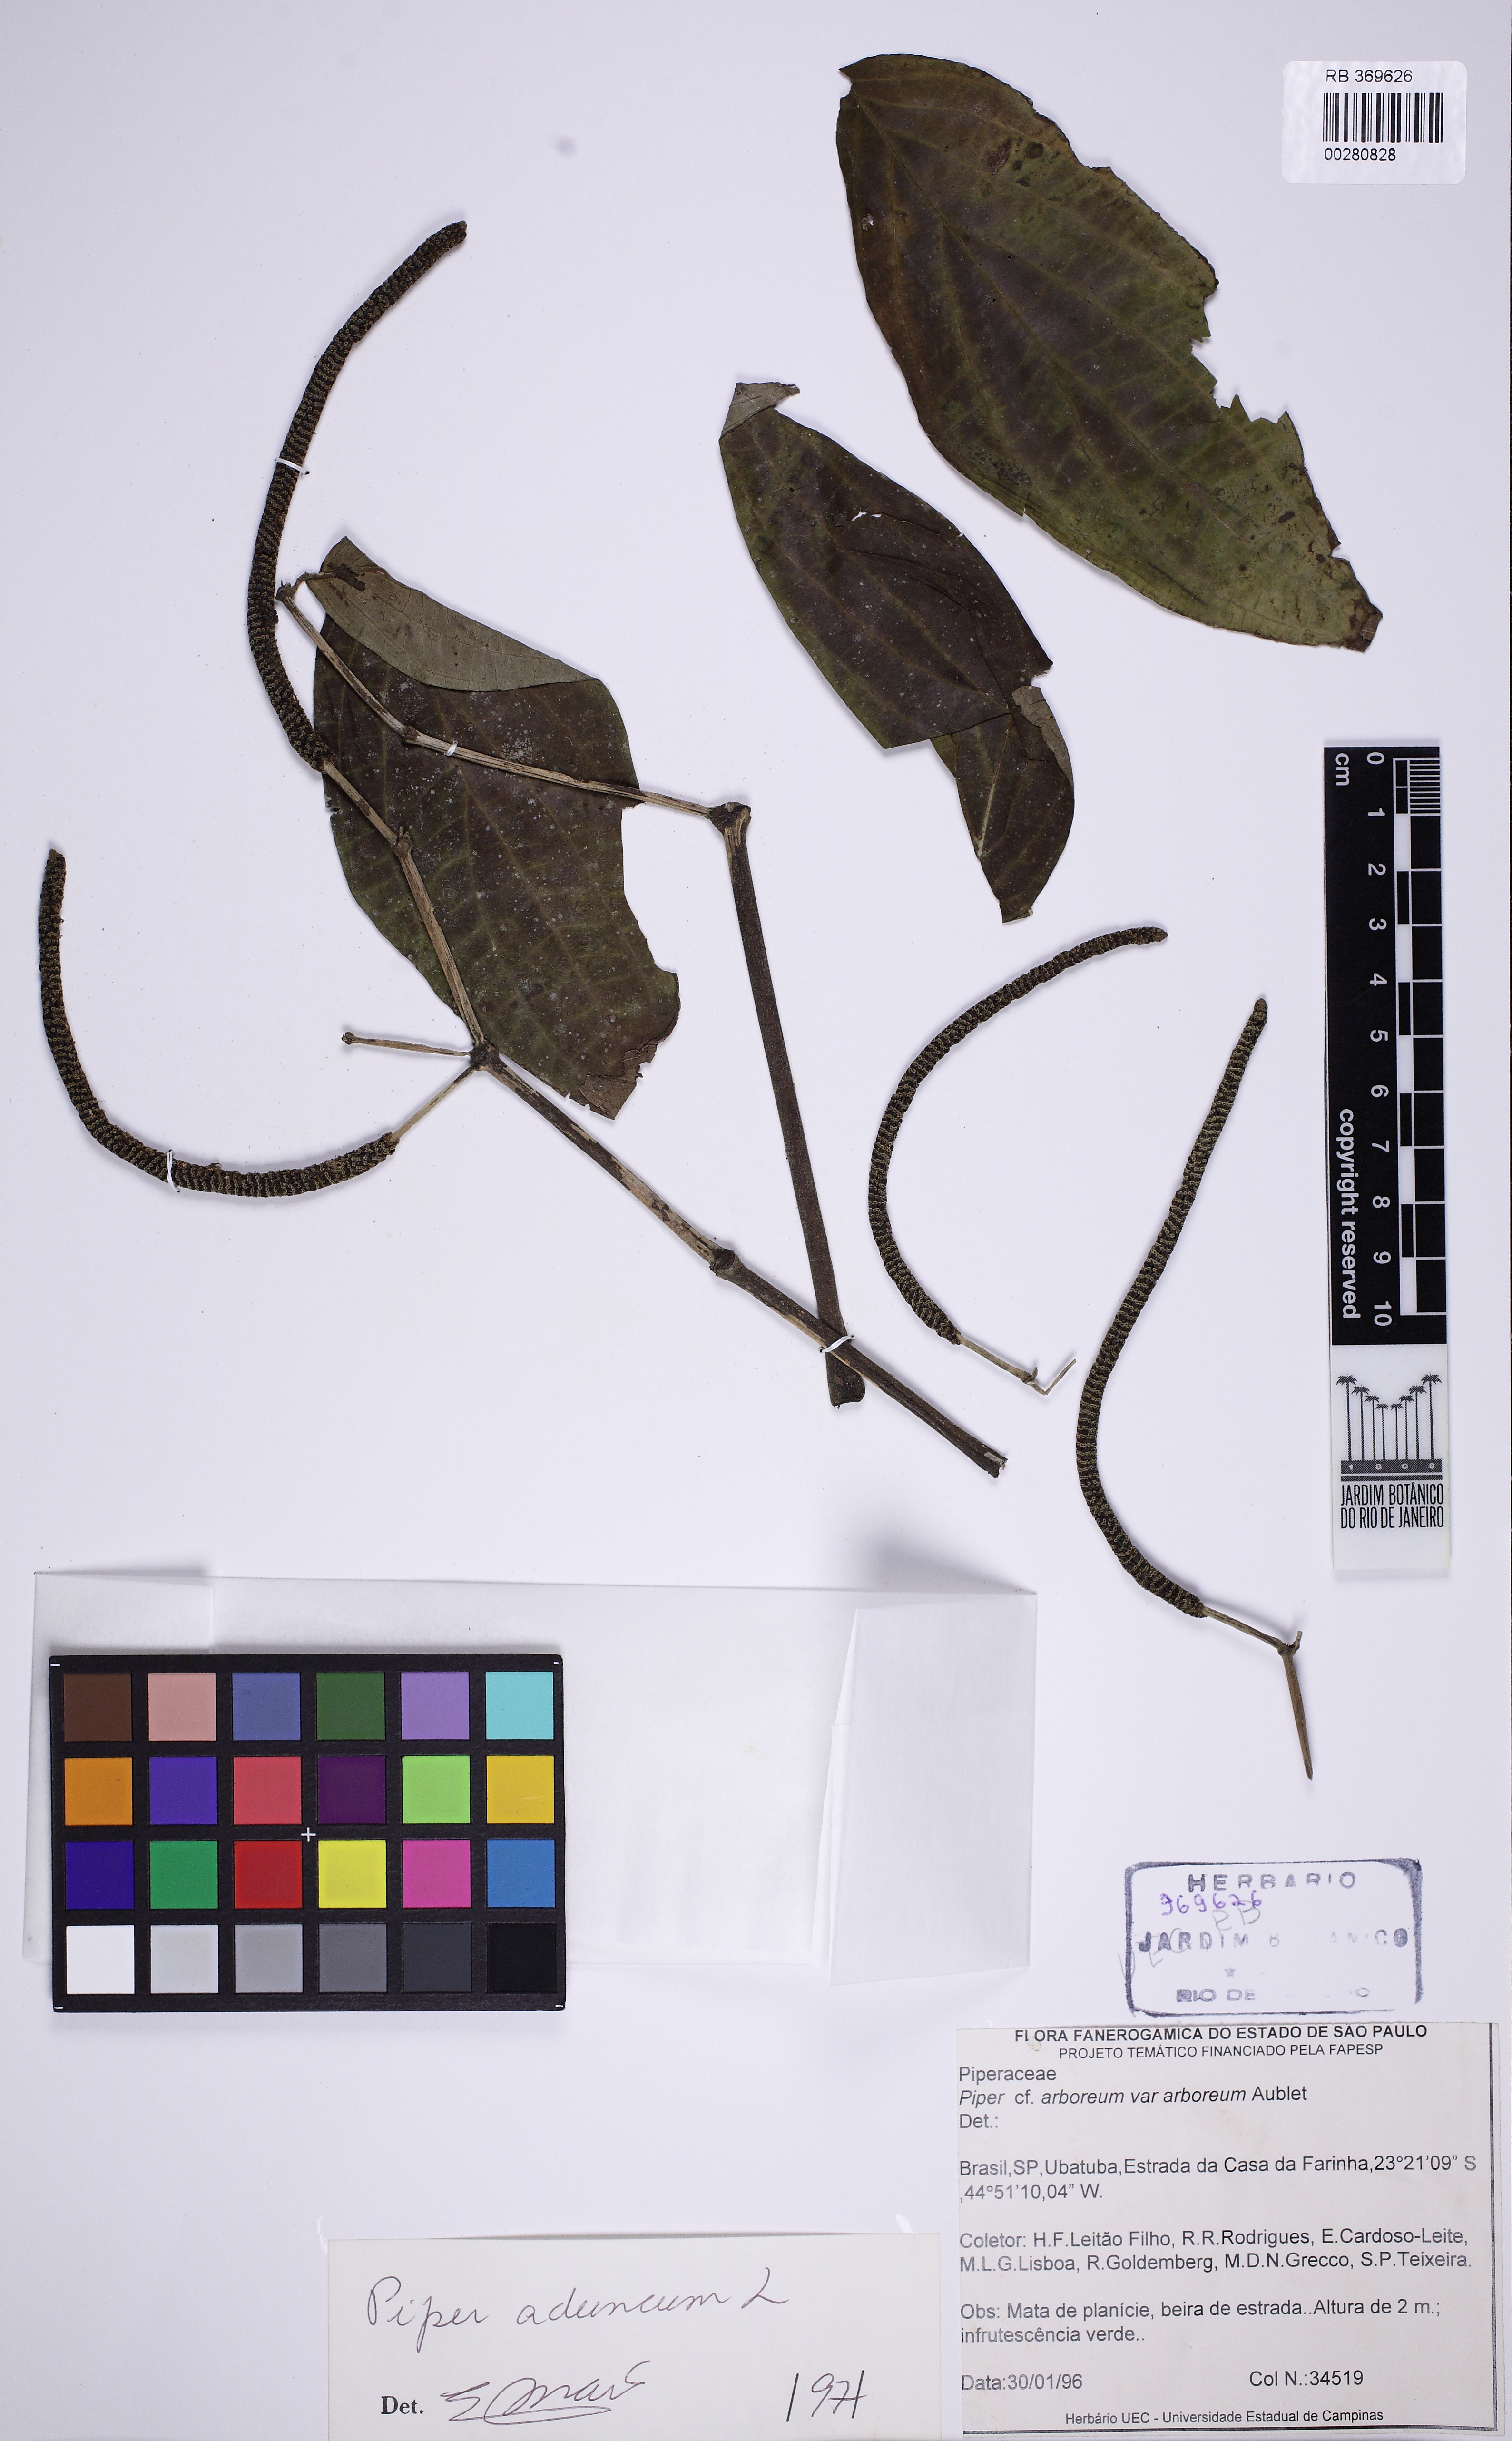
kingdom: Plantae
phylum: Tracheophyta
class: Magnoliopsida
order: Piperales
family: Piperaceae
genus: Piper
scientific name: Piper aduncum
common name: Spiked pepper
